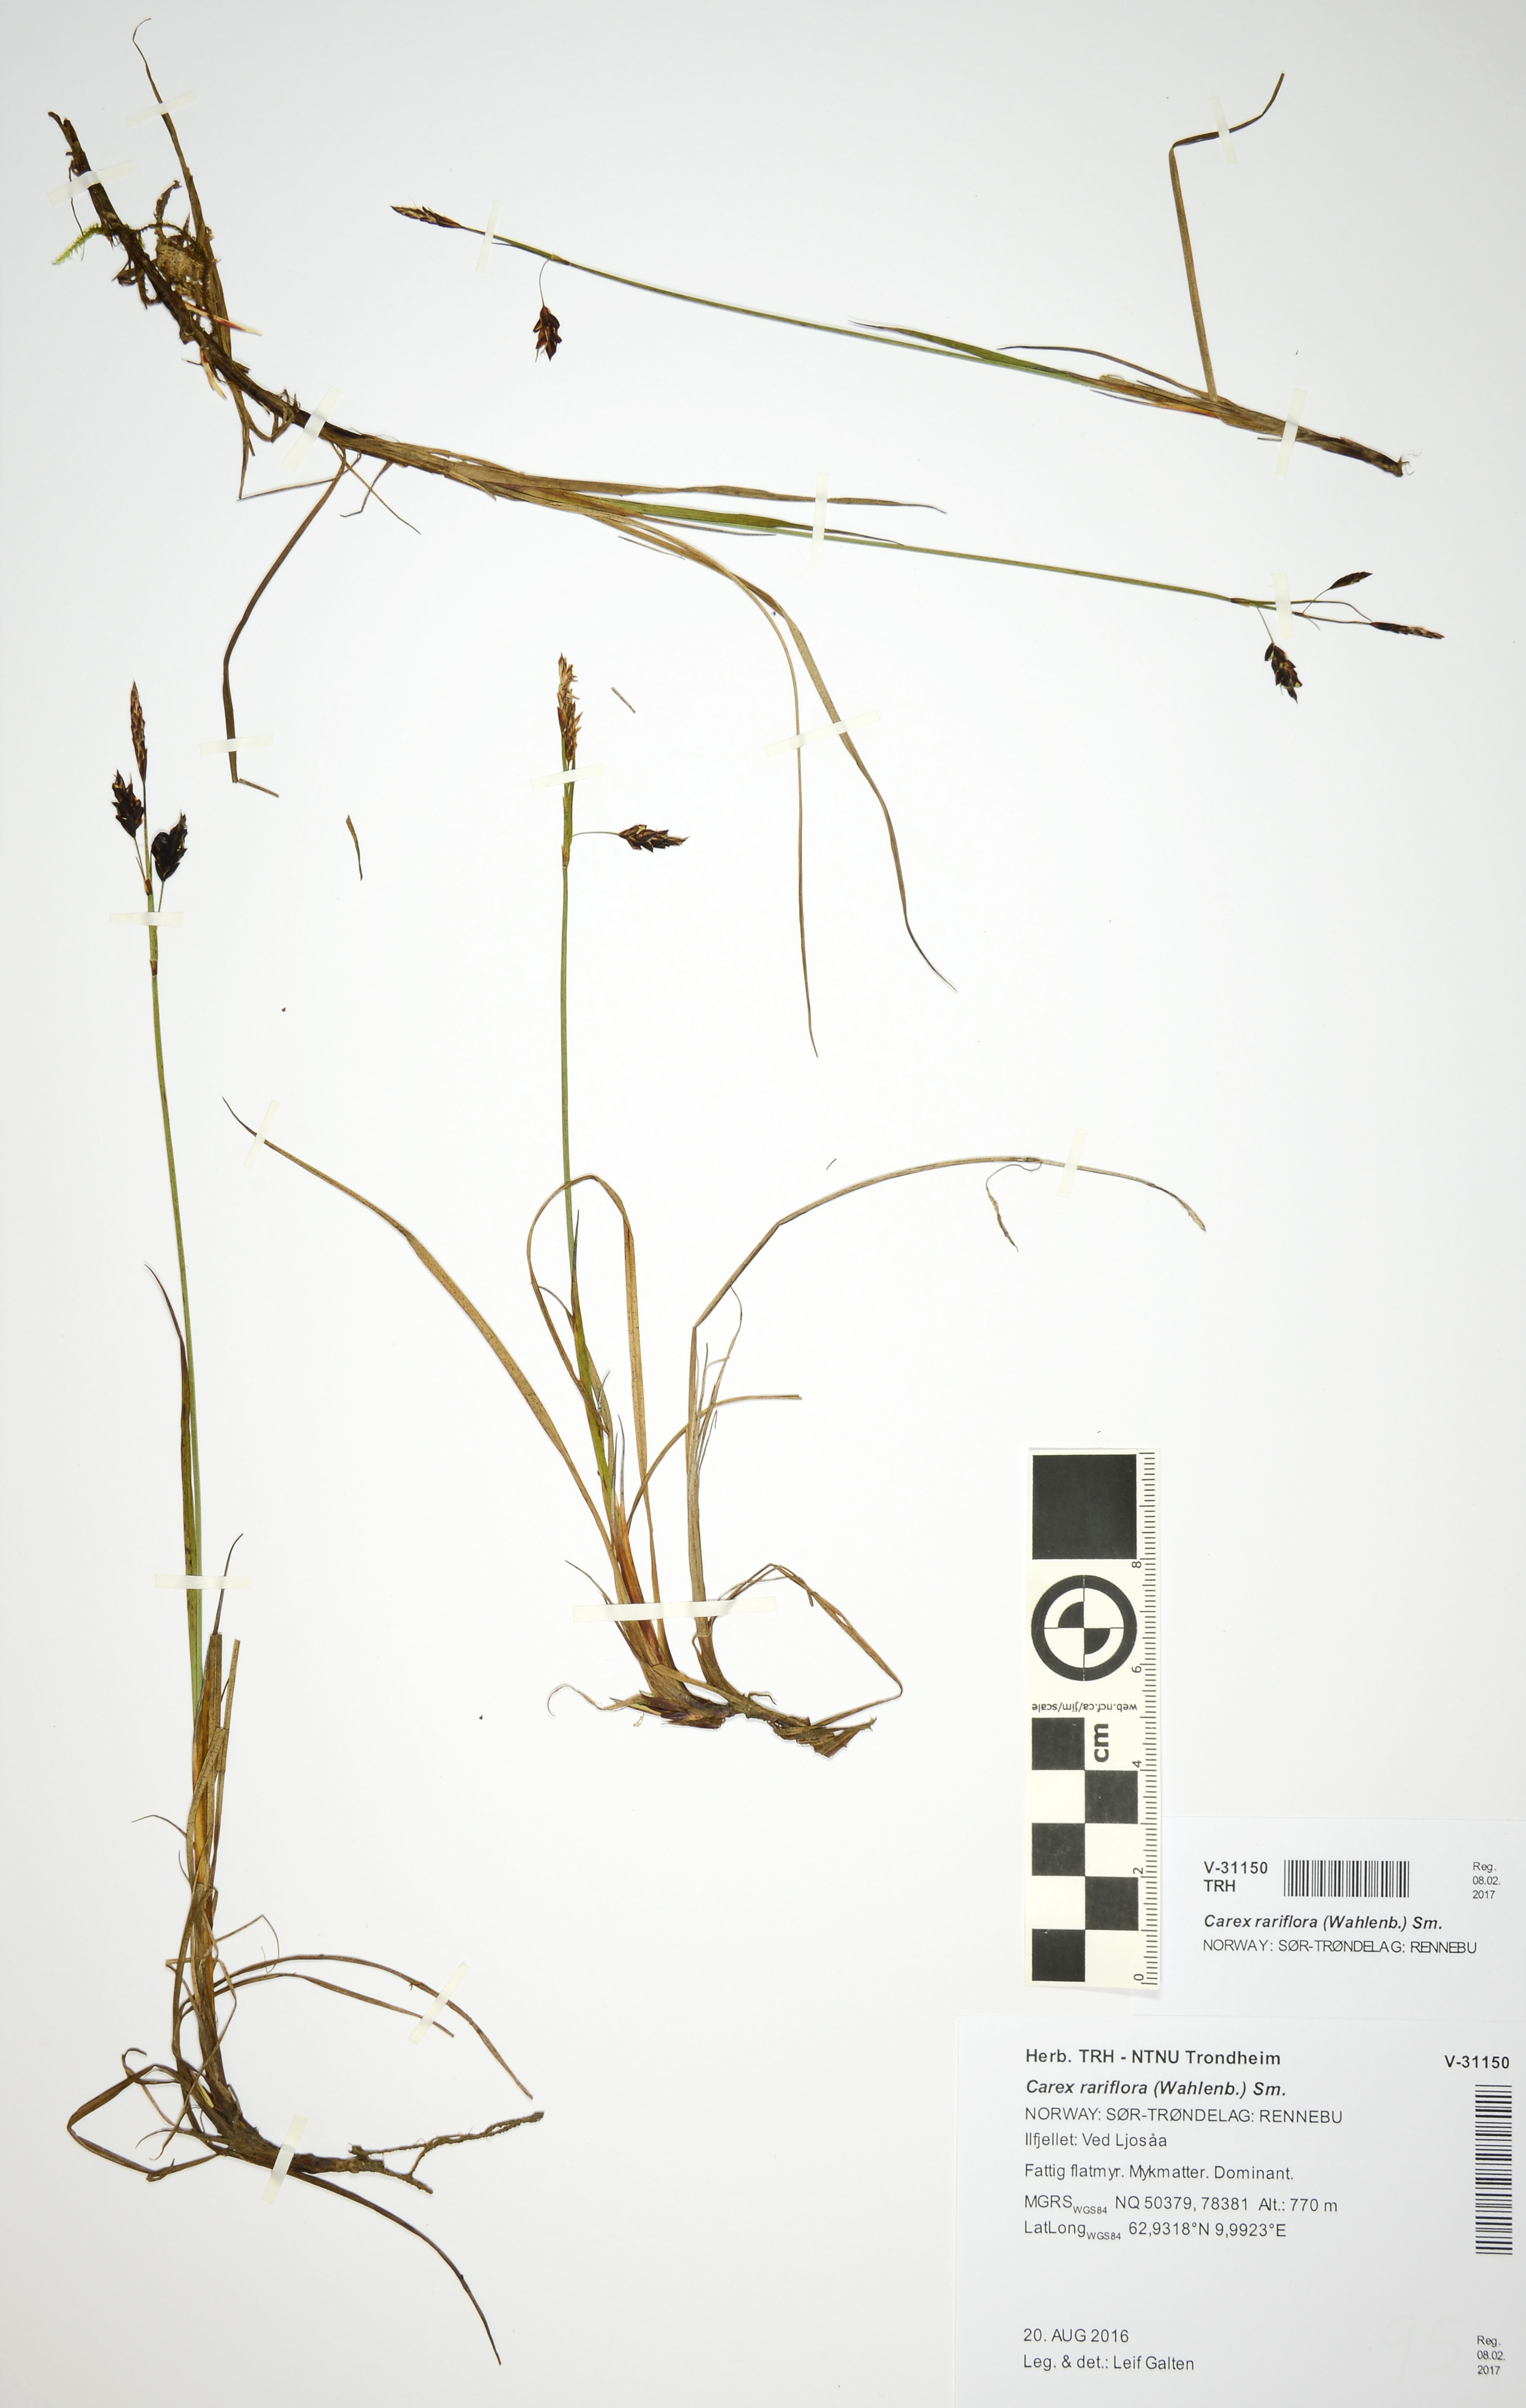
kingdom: Plantae
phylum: Tracheophyta
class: Liliopsida
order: Poales
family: Cyperaceae
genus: Carex
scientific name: Carex rariflora
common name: Loose-flowered alpine sedge
